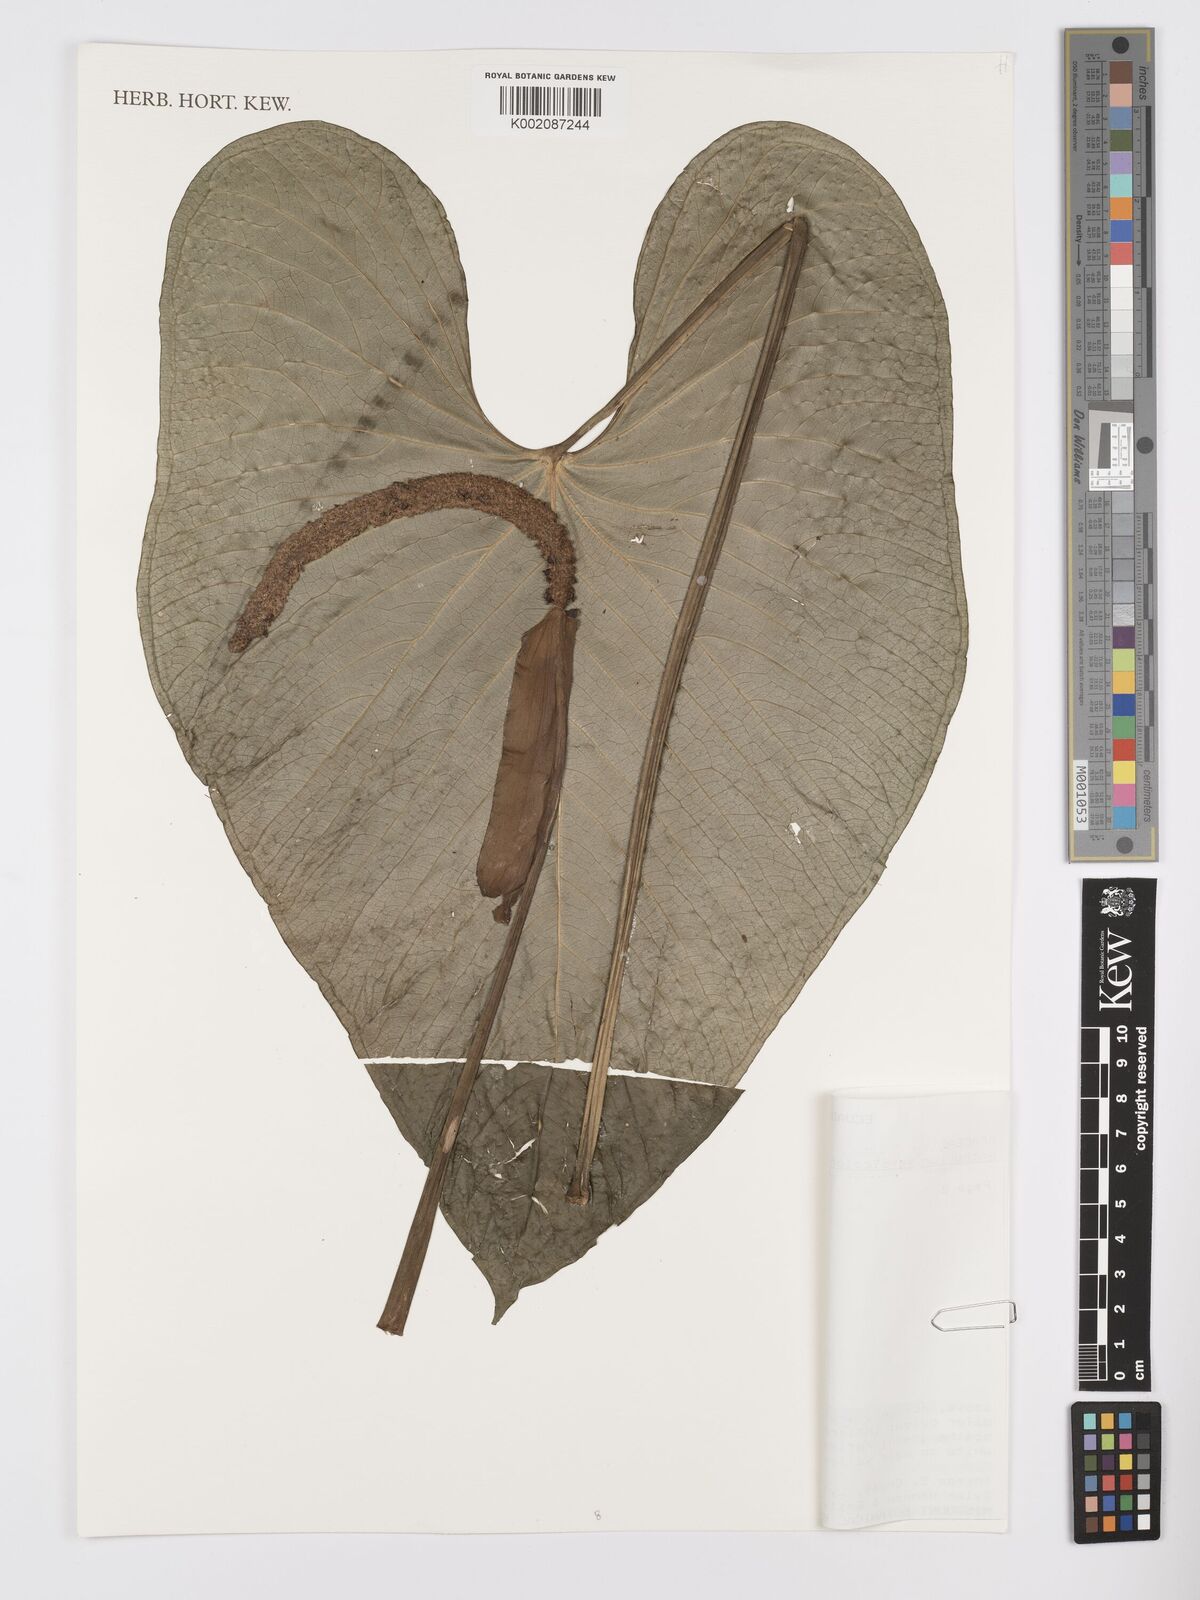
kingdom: Plantae
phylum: Tracheophyta
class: Liliopsida
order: Alismatales
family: Araceae
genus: Anthurium
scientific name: Anthurium versicolor
